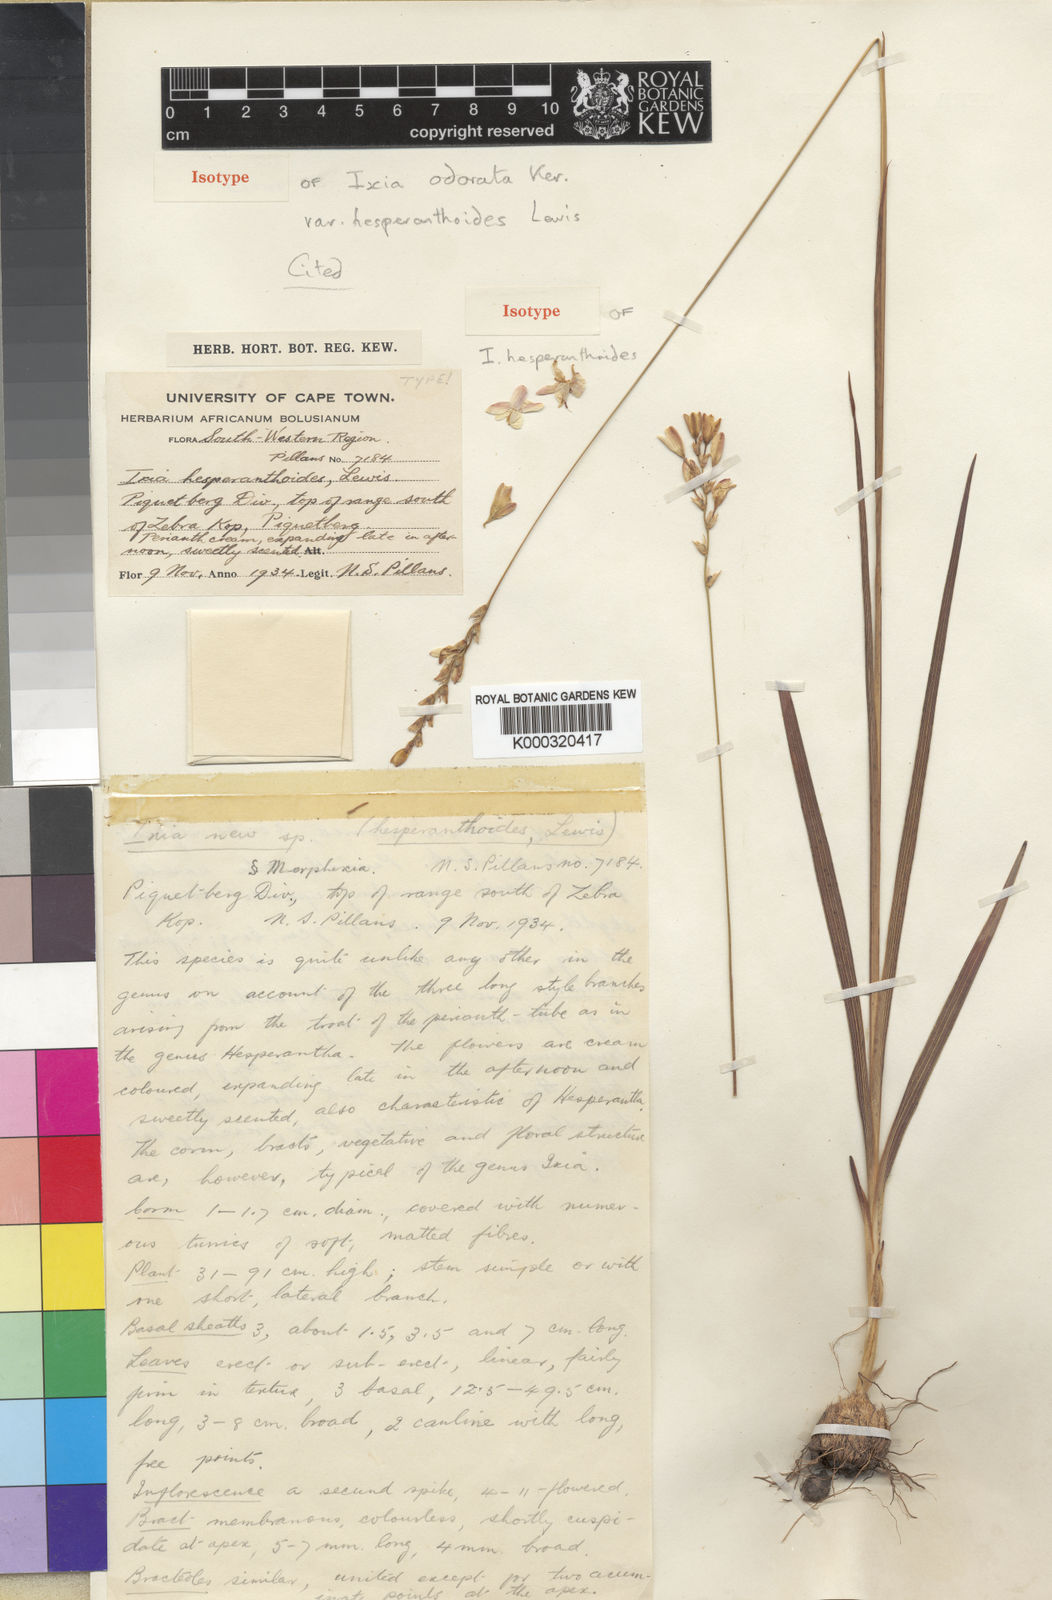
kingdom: Plantae
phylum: Tracheophyta
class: Liliopsida
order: Asparagales
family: Iridaceae
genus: Ixia
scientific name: Ixia odorata
